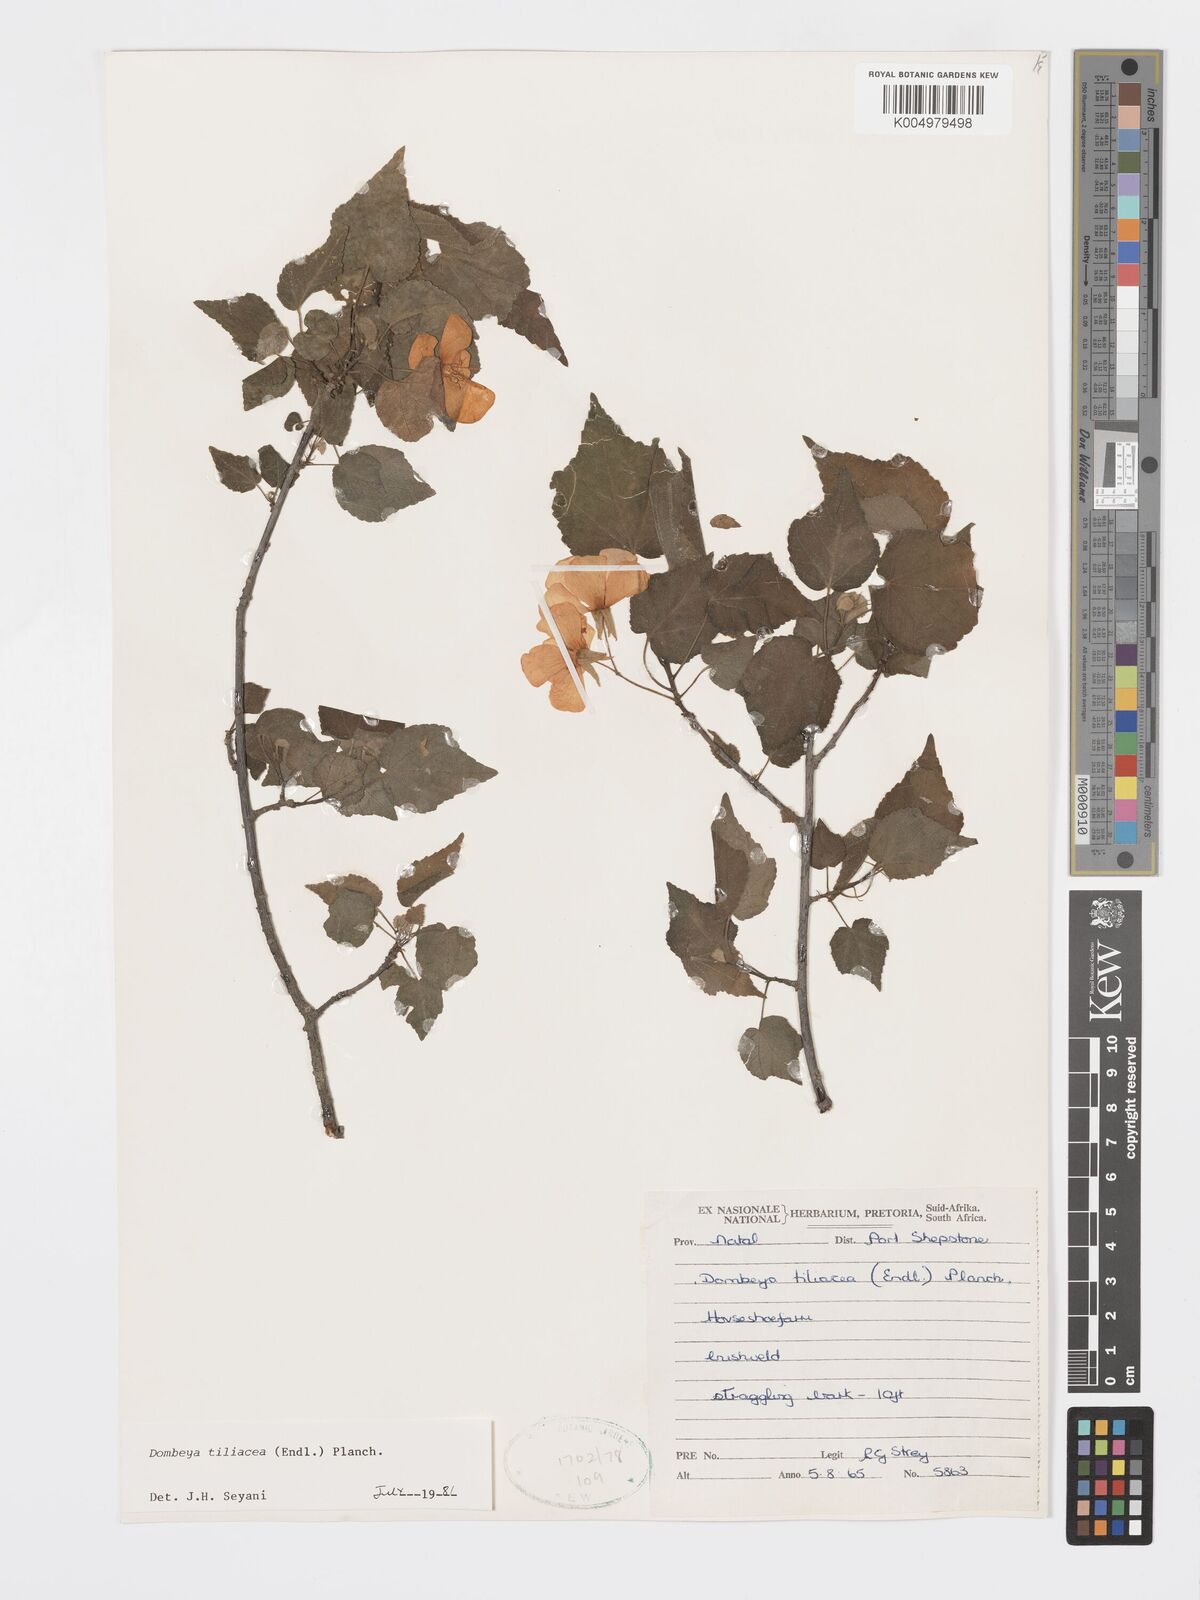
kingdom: Plantae
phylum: Tracheophyta
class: Magnoliopsida
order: Malvales
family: Malvaceae
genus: Dombeya
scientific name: Dombeya tiliacea
